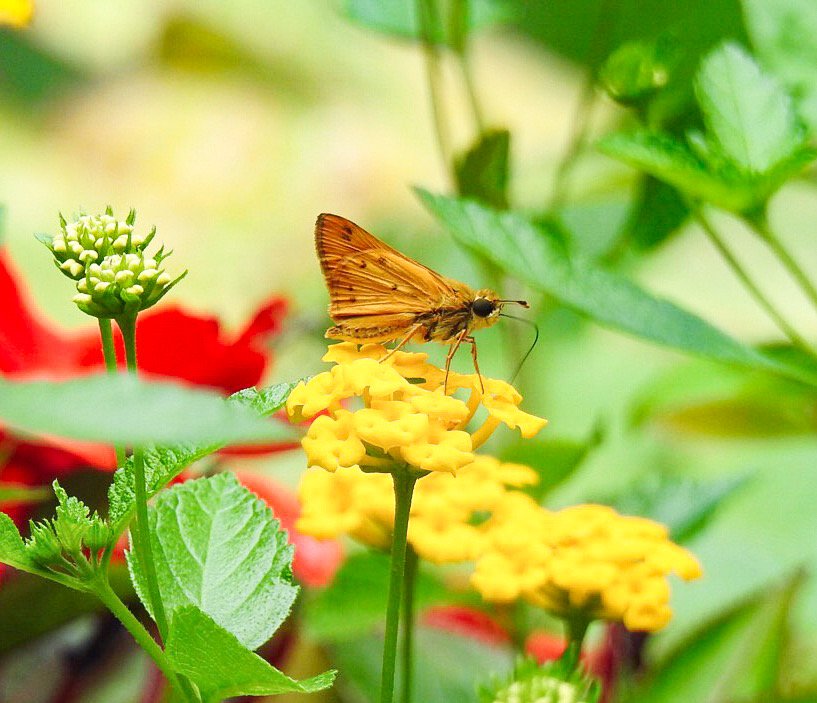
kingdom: Animalia
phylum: Arthropoda
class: Insecta
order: Lepidoptera
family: Hesperiidae
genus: Hylephila
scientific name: Hylephila phyleus
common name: Fiery Skipper
